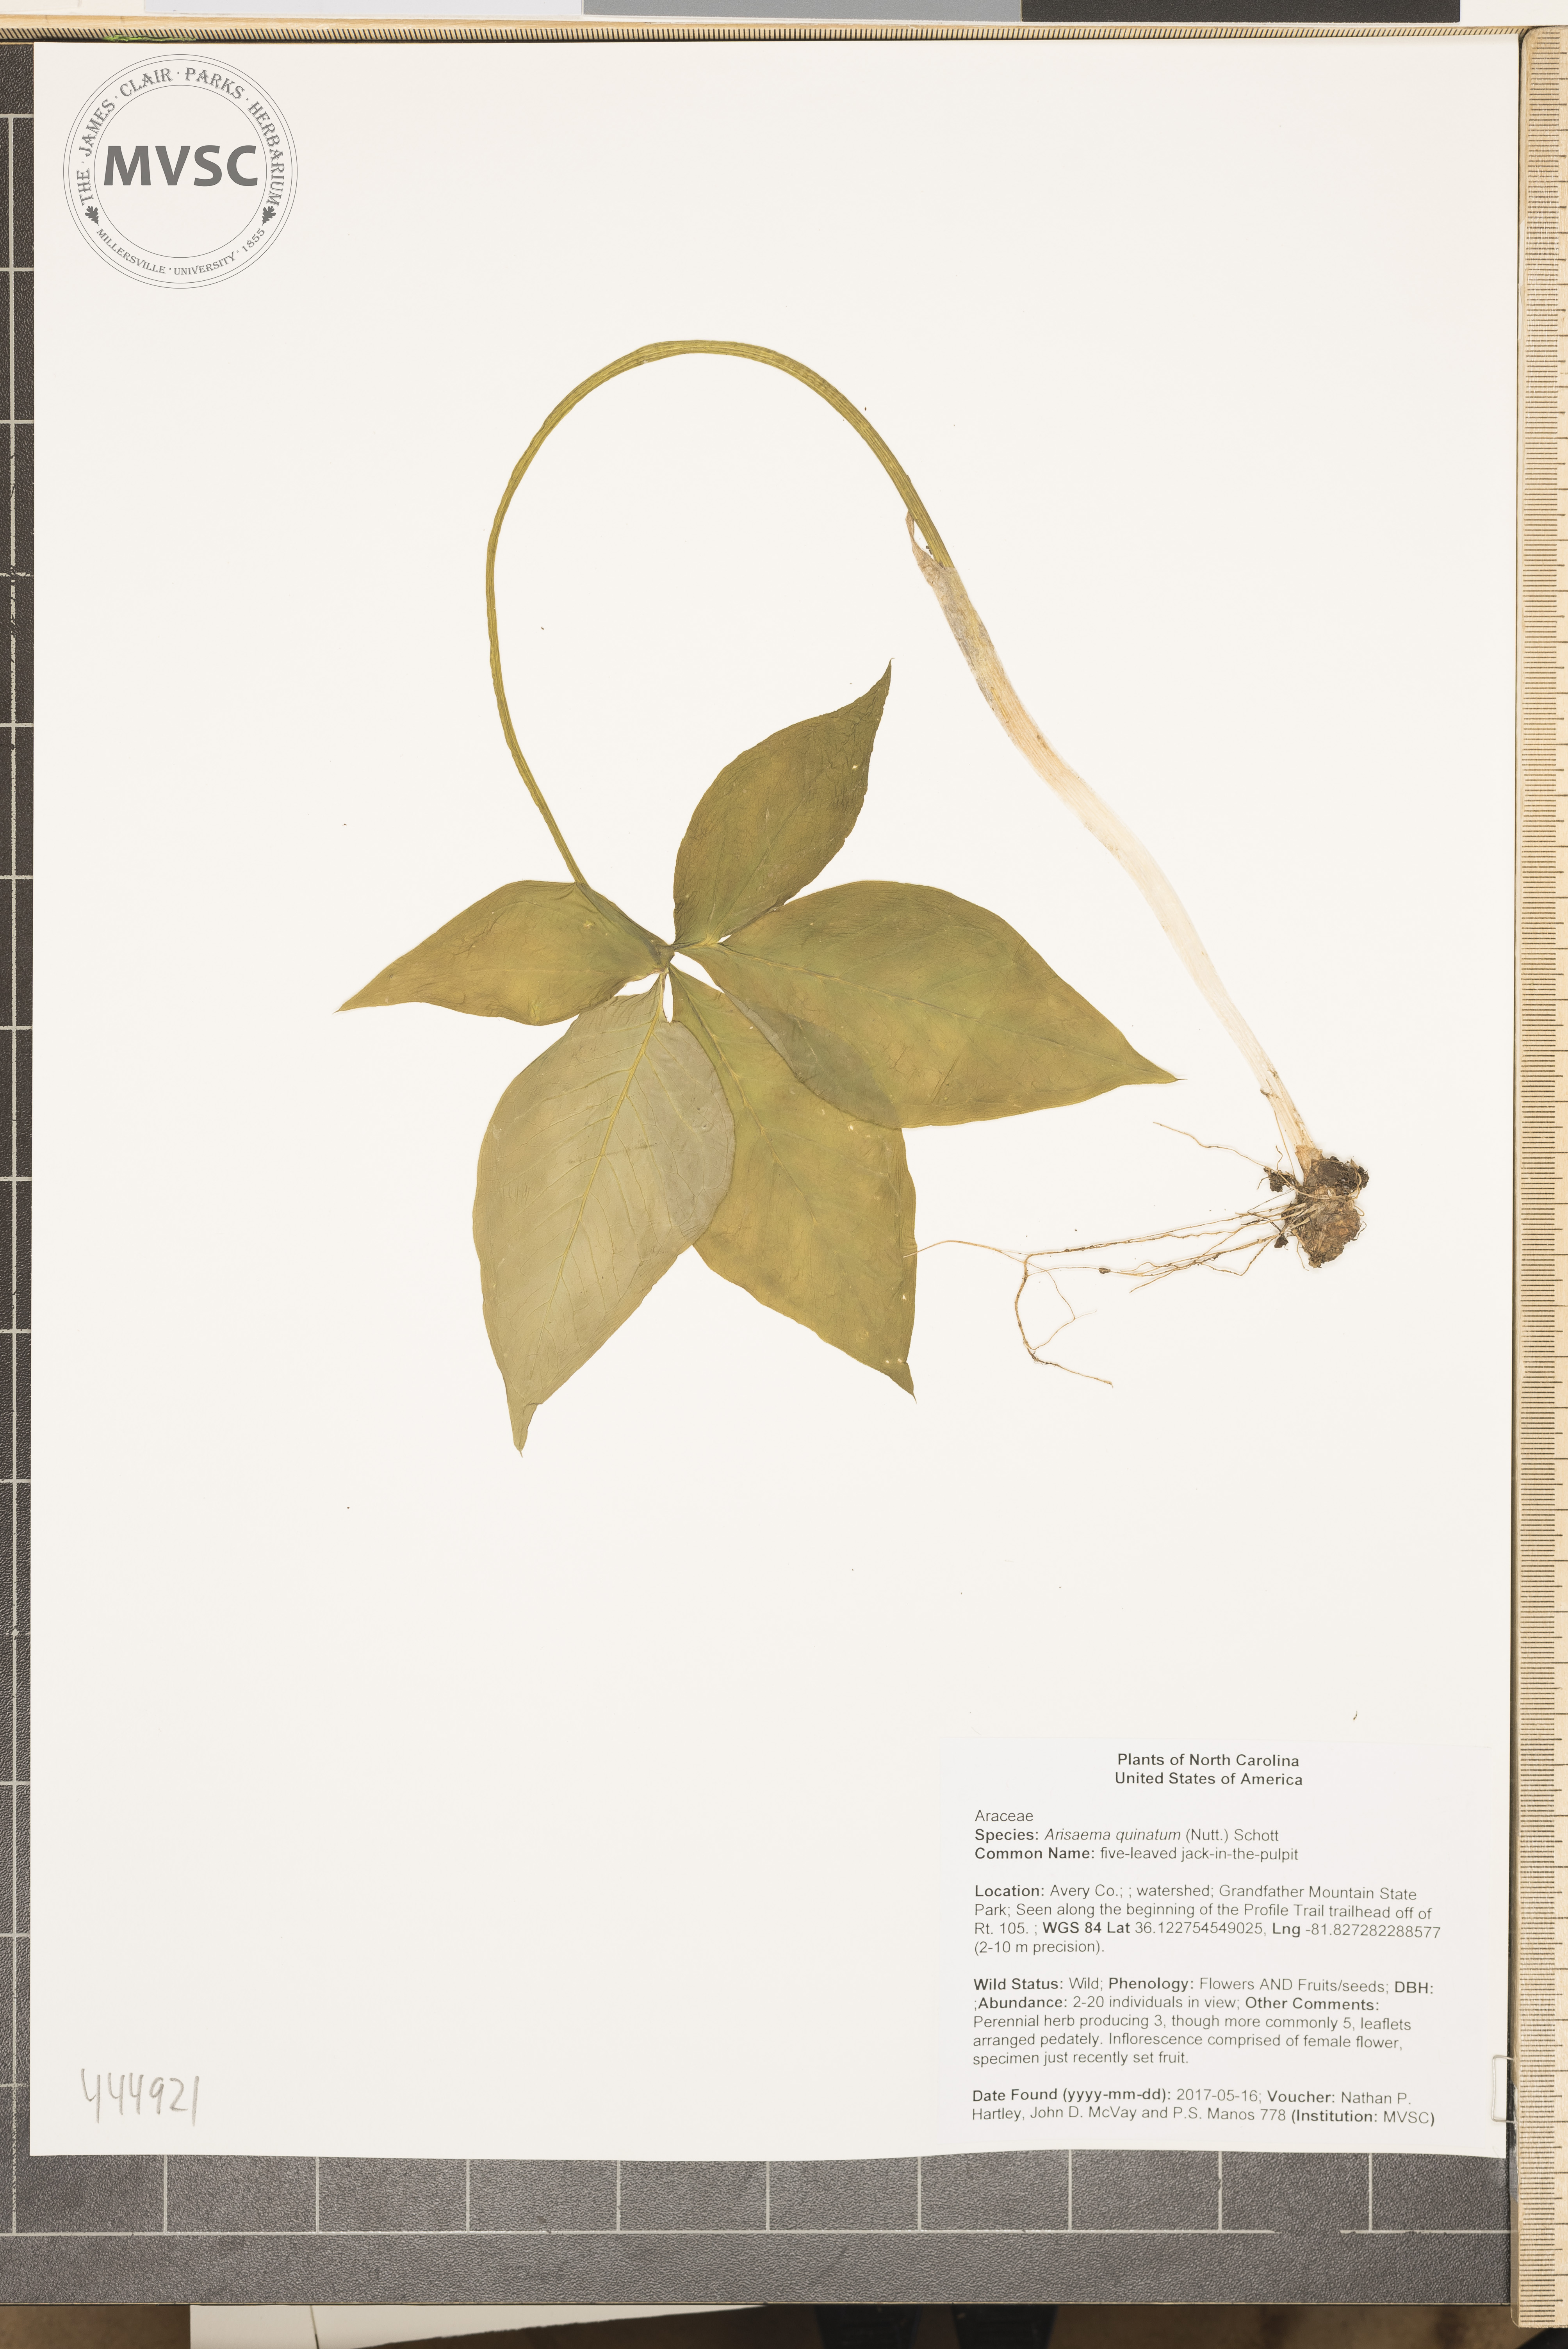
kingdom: Plantae
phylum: Tracheophyta
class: Liliopsida
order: Alismatales
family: Araceae
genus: Arisaema
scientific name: Arisaema quinatum
